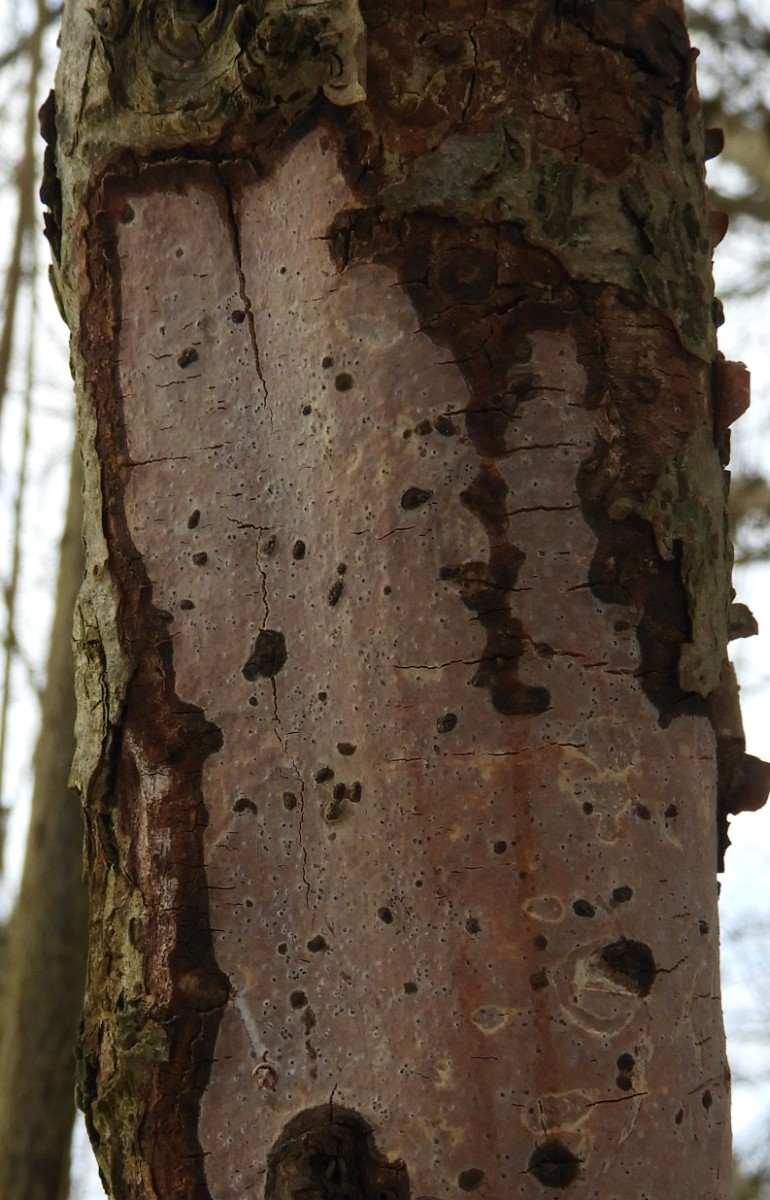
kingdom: Fungi
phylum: Basidiomycota
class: Agaricomycetes
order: Corticiales
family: Vuilleminiaceae
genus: Vuilleminia
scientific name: Vuilleminia coryli
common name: hassel-barksprænger
